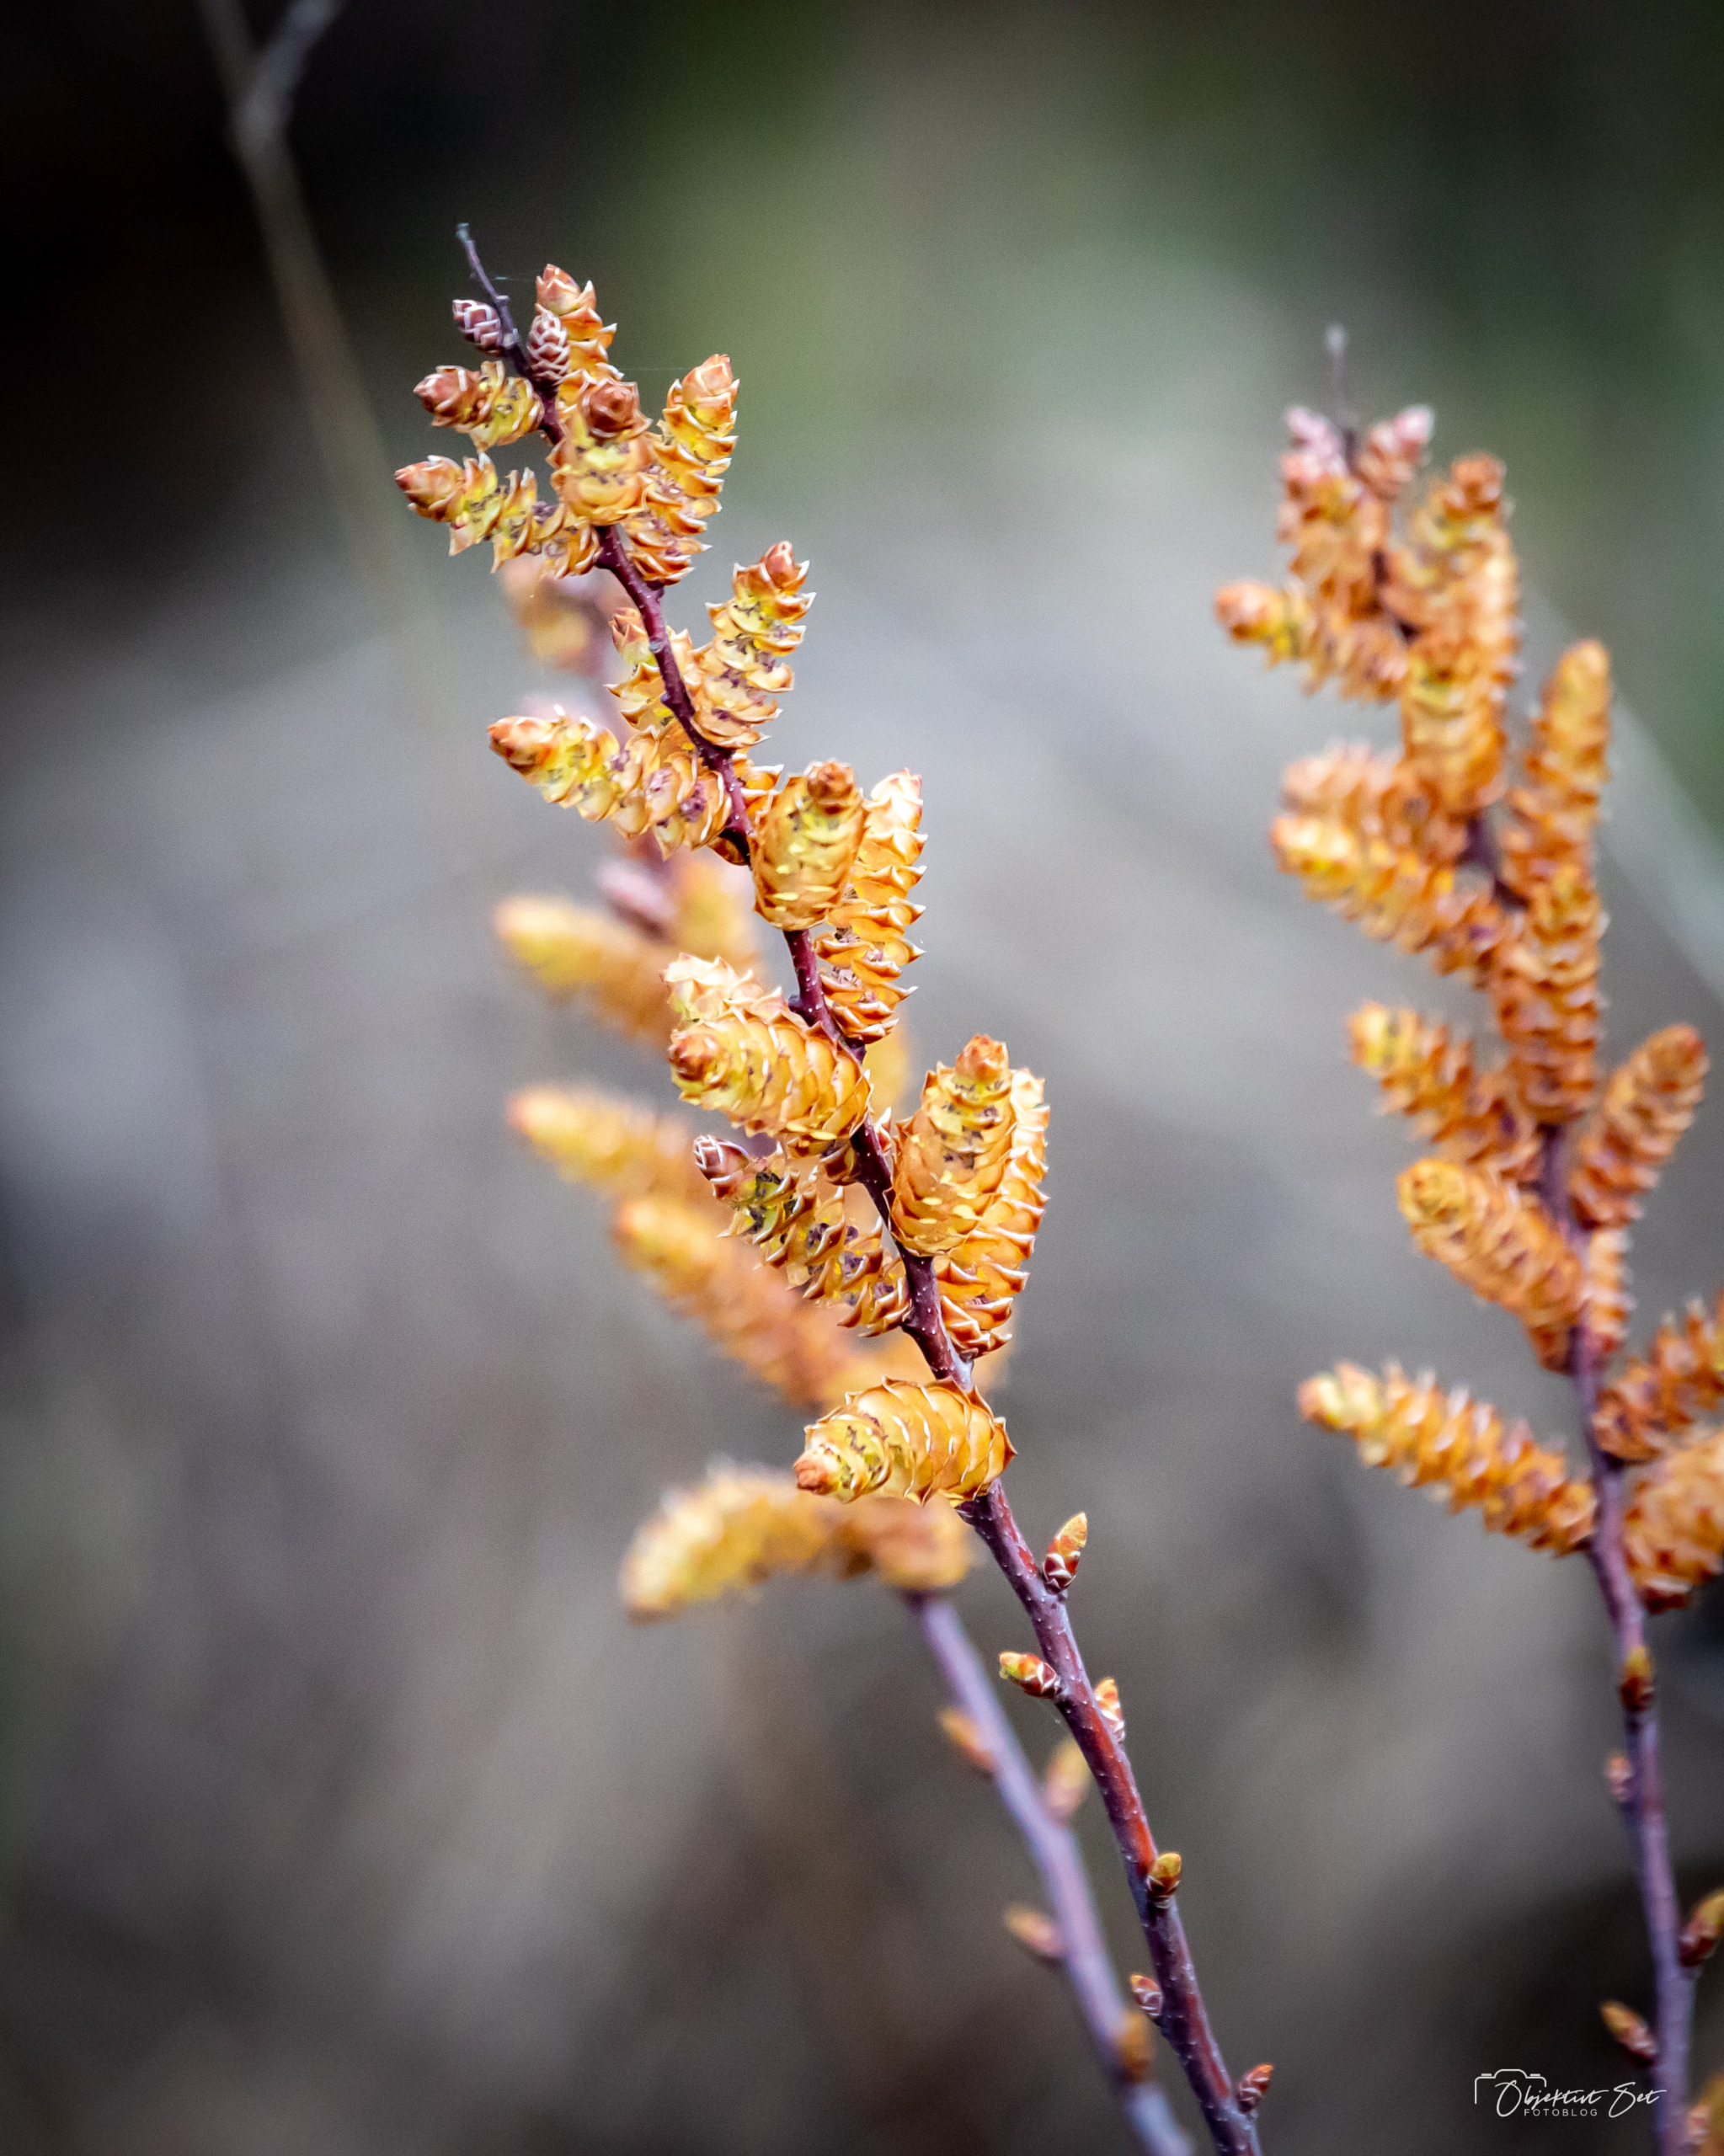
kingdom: Plantae
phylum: Tracheophyta
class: Magnoliopsida
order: Fagales
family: Myricaceae
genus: Myrica
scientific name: Myrica gale
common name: Pors
